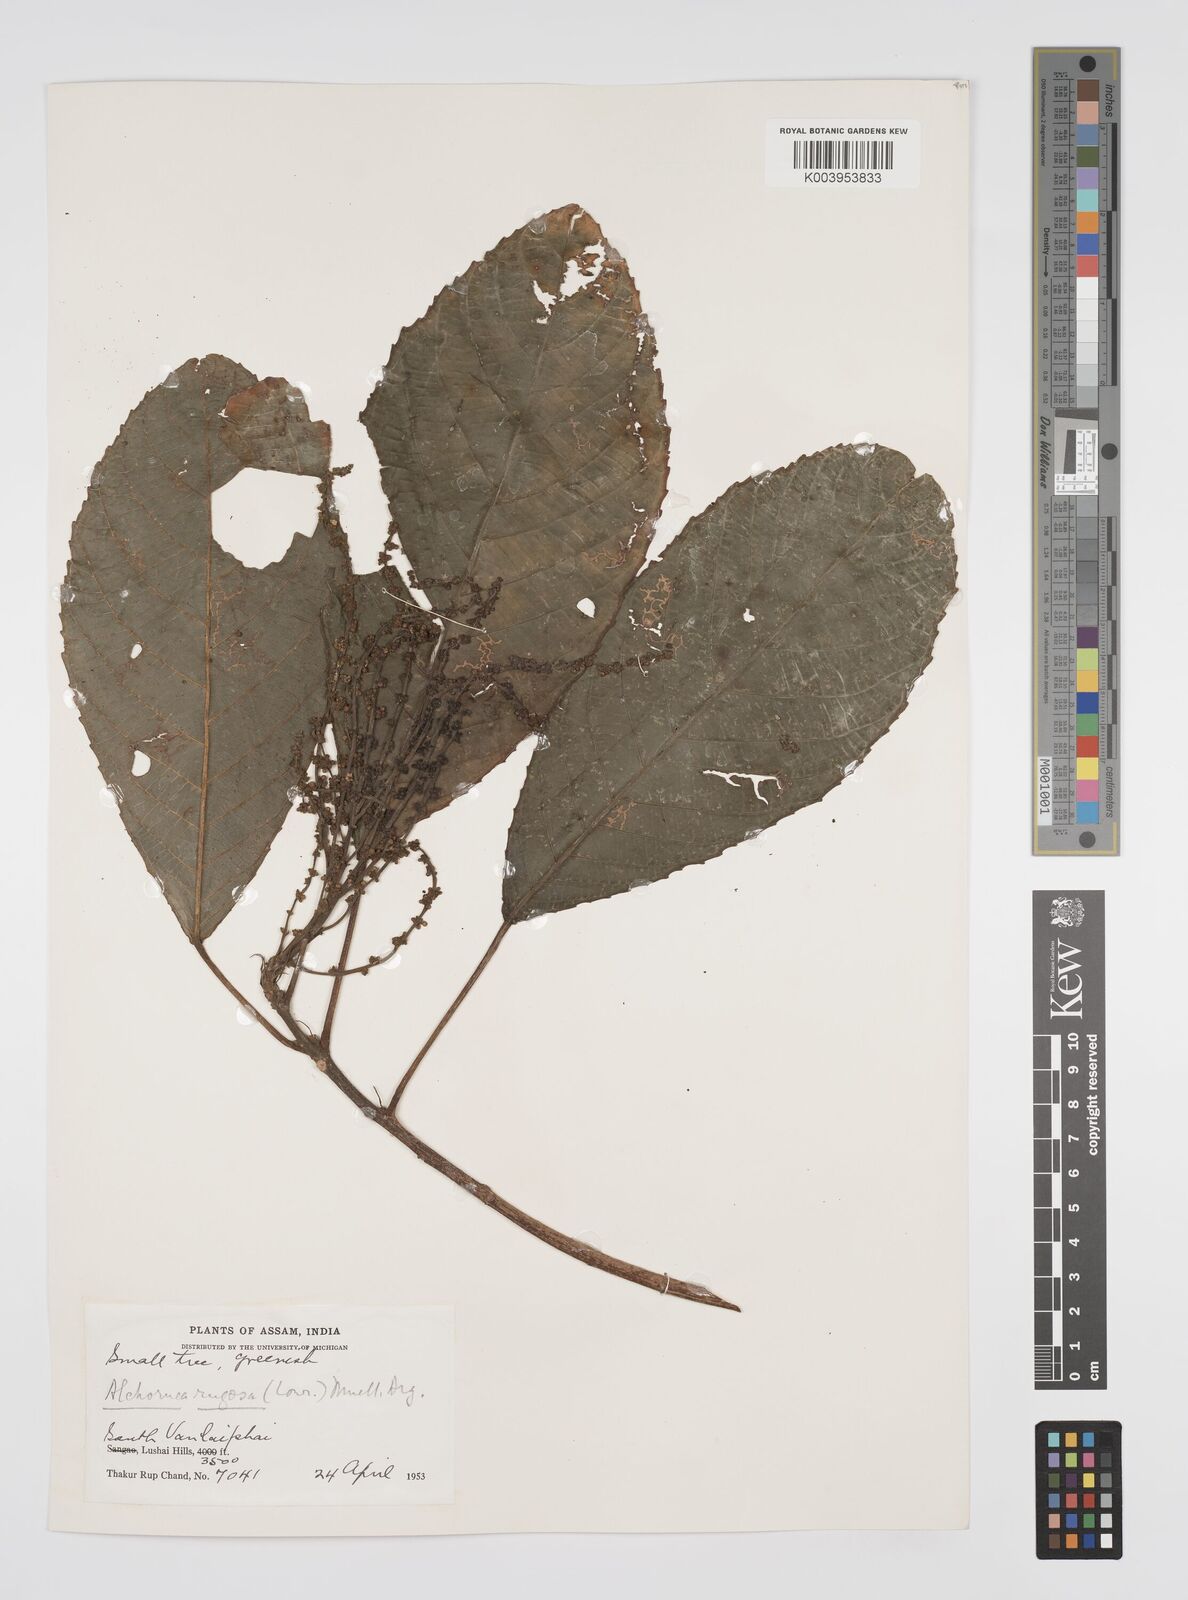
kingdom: Plantae
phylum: Tracheophyta
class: Magnoliopsida
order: Malpighiales
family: Euphorbiaceae
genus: Alchornea
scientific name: Alchornea rugosa
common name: Alchorntree
